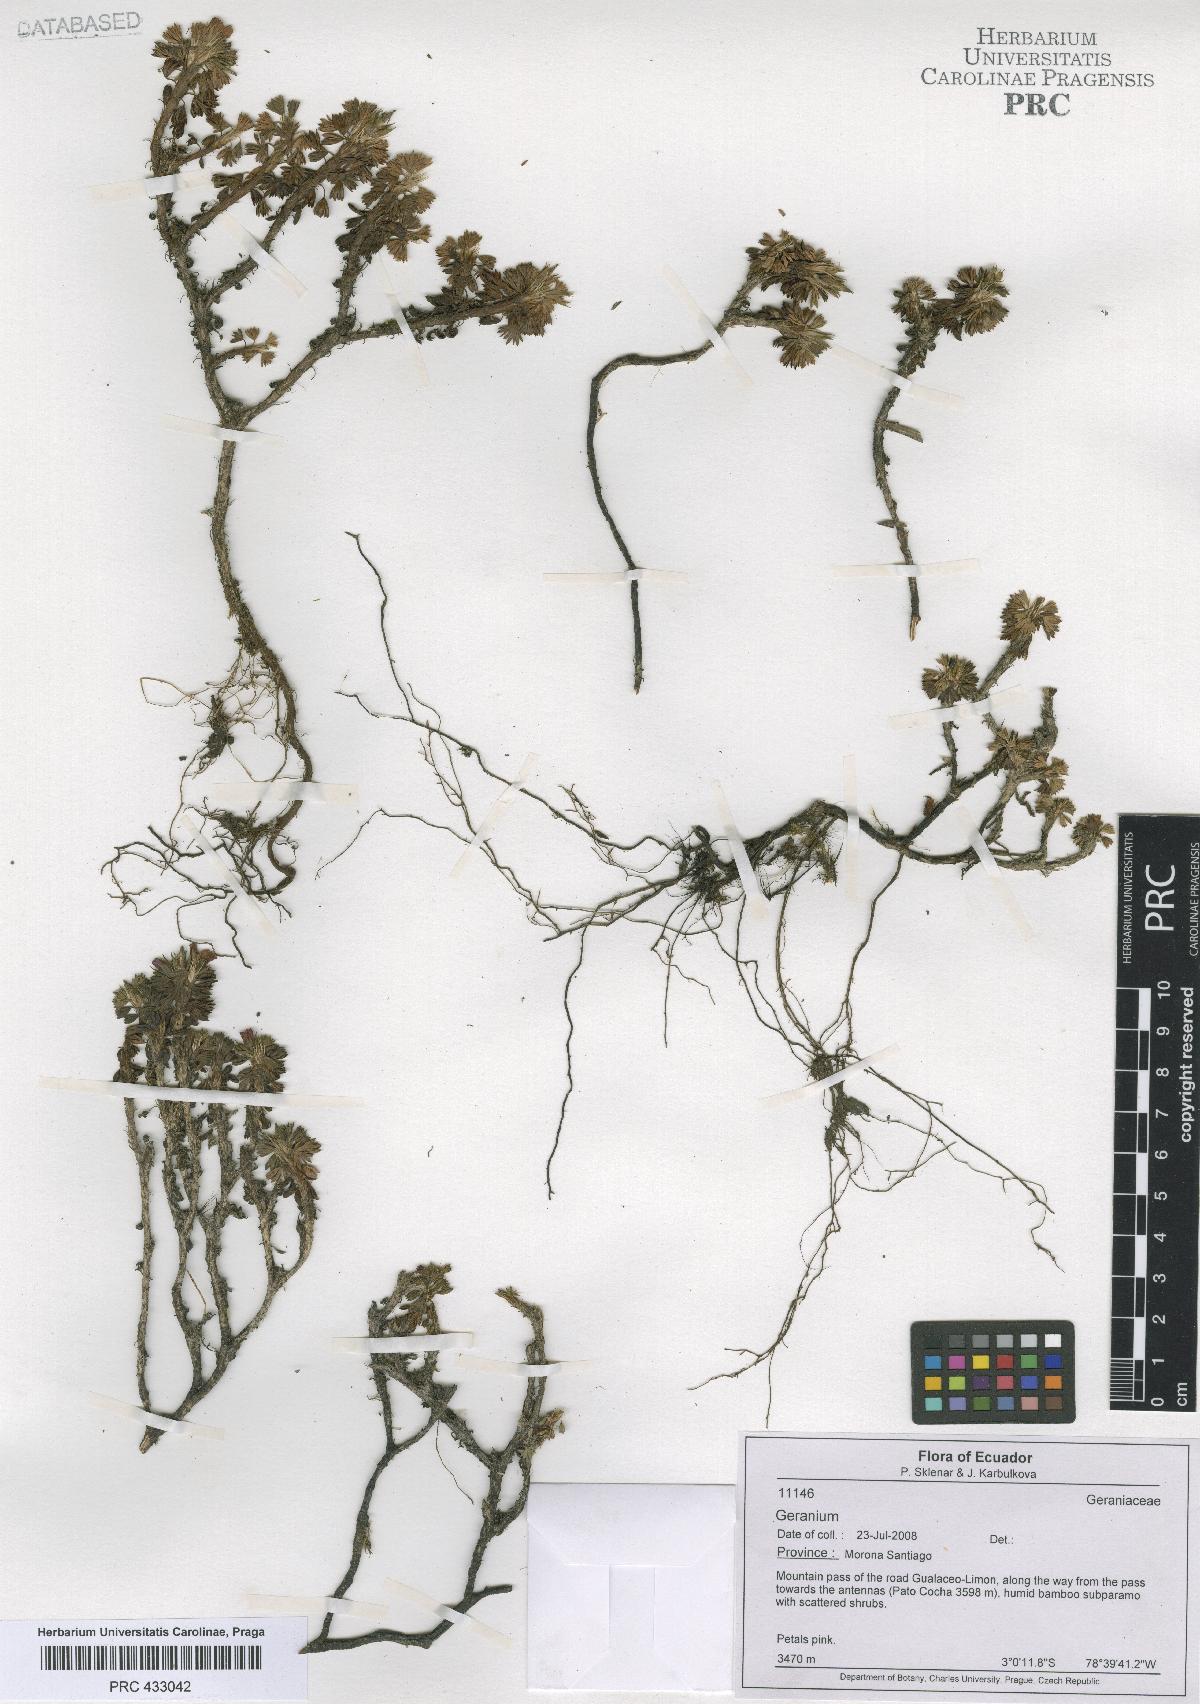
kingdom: Plantae
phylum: Tracheophyta
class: Magnoliopsida
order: Geraniales
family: Geraniaceae
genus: Geranium
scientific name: Geranium loxense
